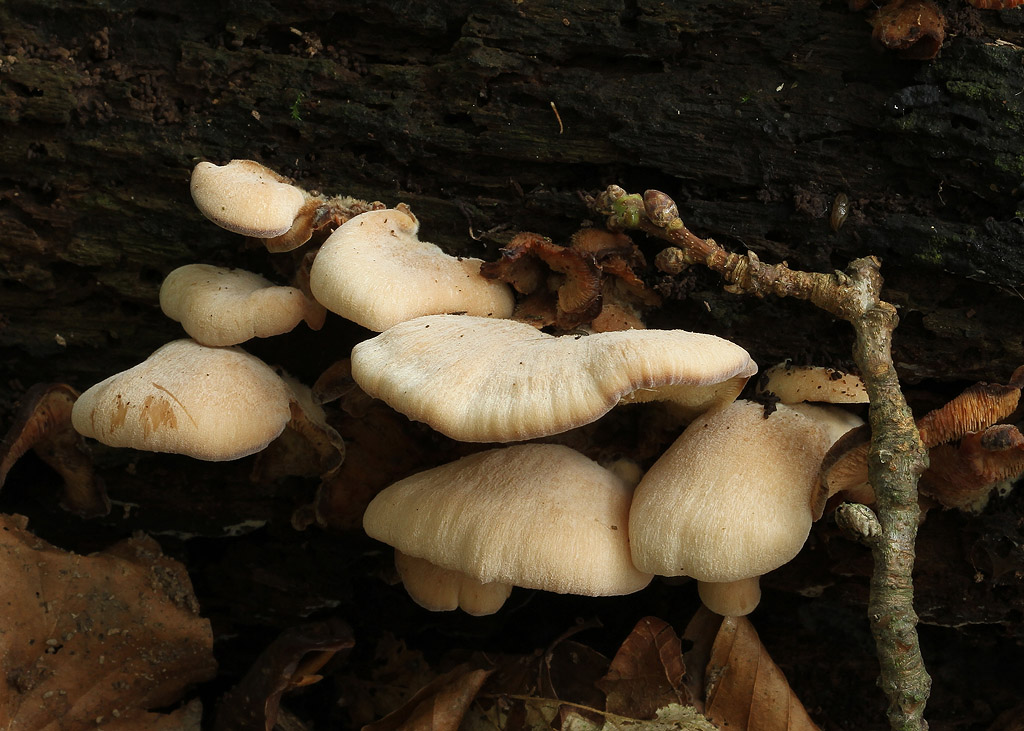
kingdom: Fungi
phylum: Basidiomycota
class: Agaricomycetes
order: Russulales
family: Auriscalpiaceae
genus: Lentinellus
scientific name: Lentinellus ursinus
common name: børstehåret savbladhat
